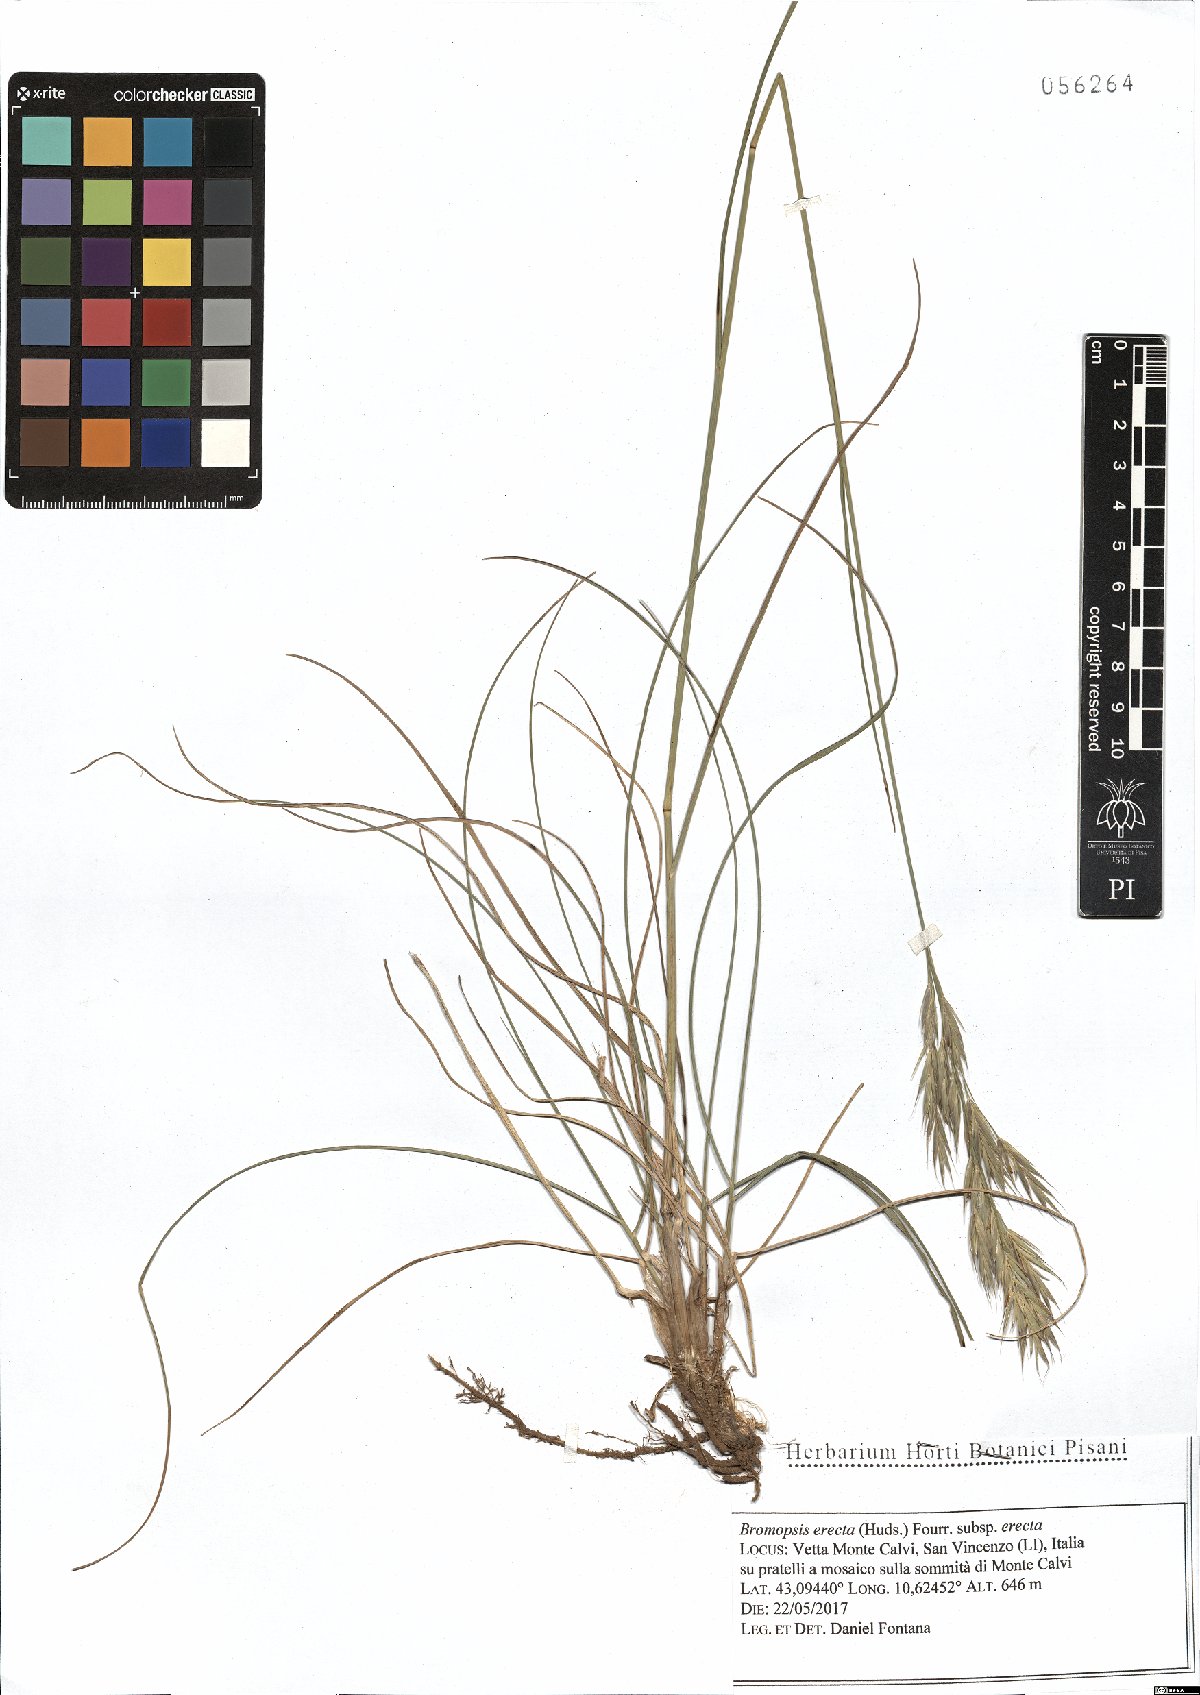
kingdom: Plantae
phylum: Tracheophyta
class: Liliopsida
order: Poales
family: Poaceae
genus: Bromus
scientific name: Bromus erectus
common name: Erect brome
